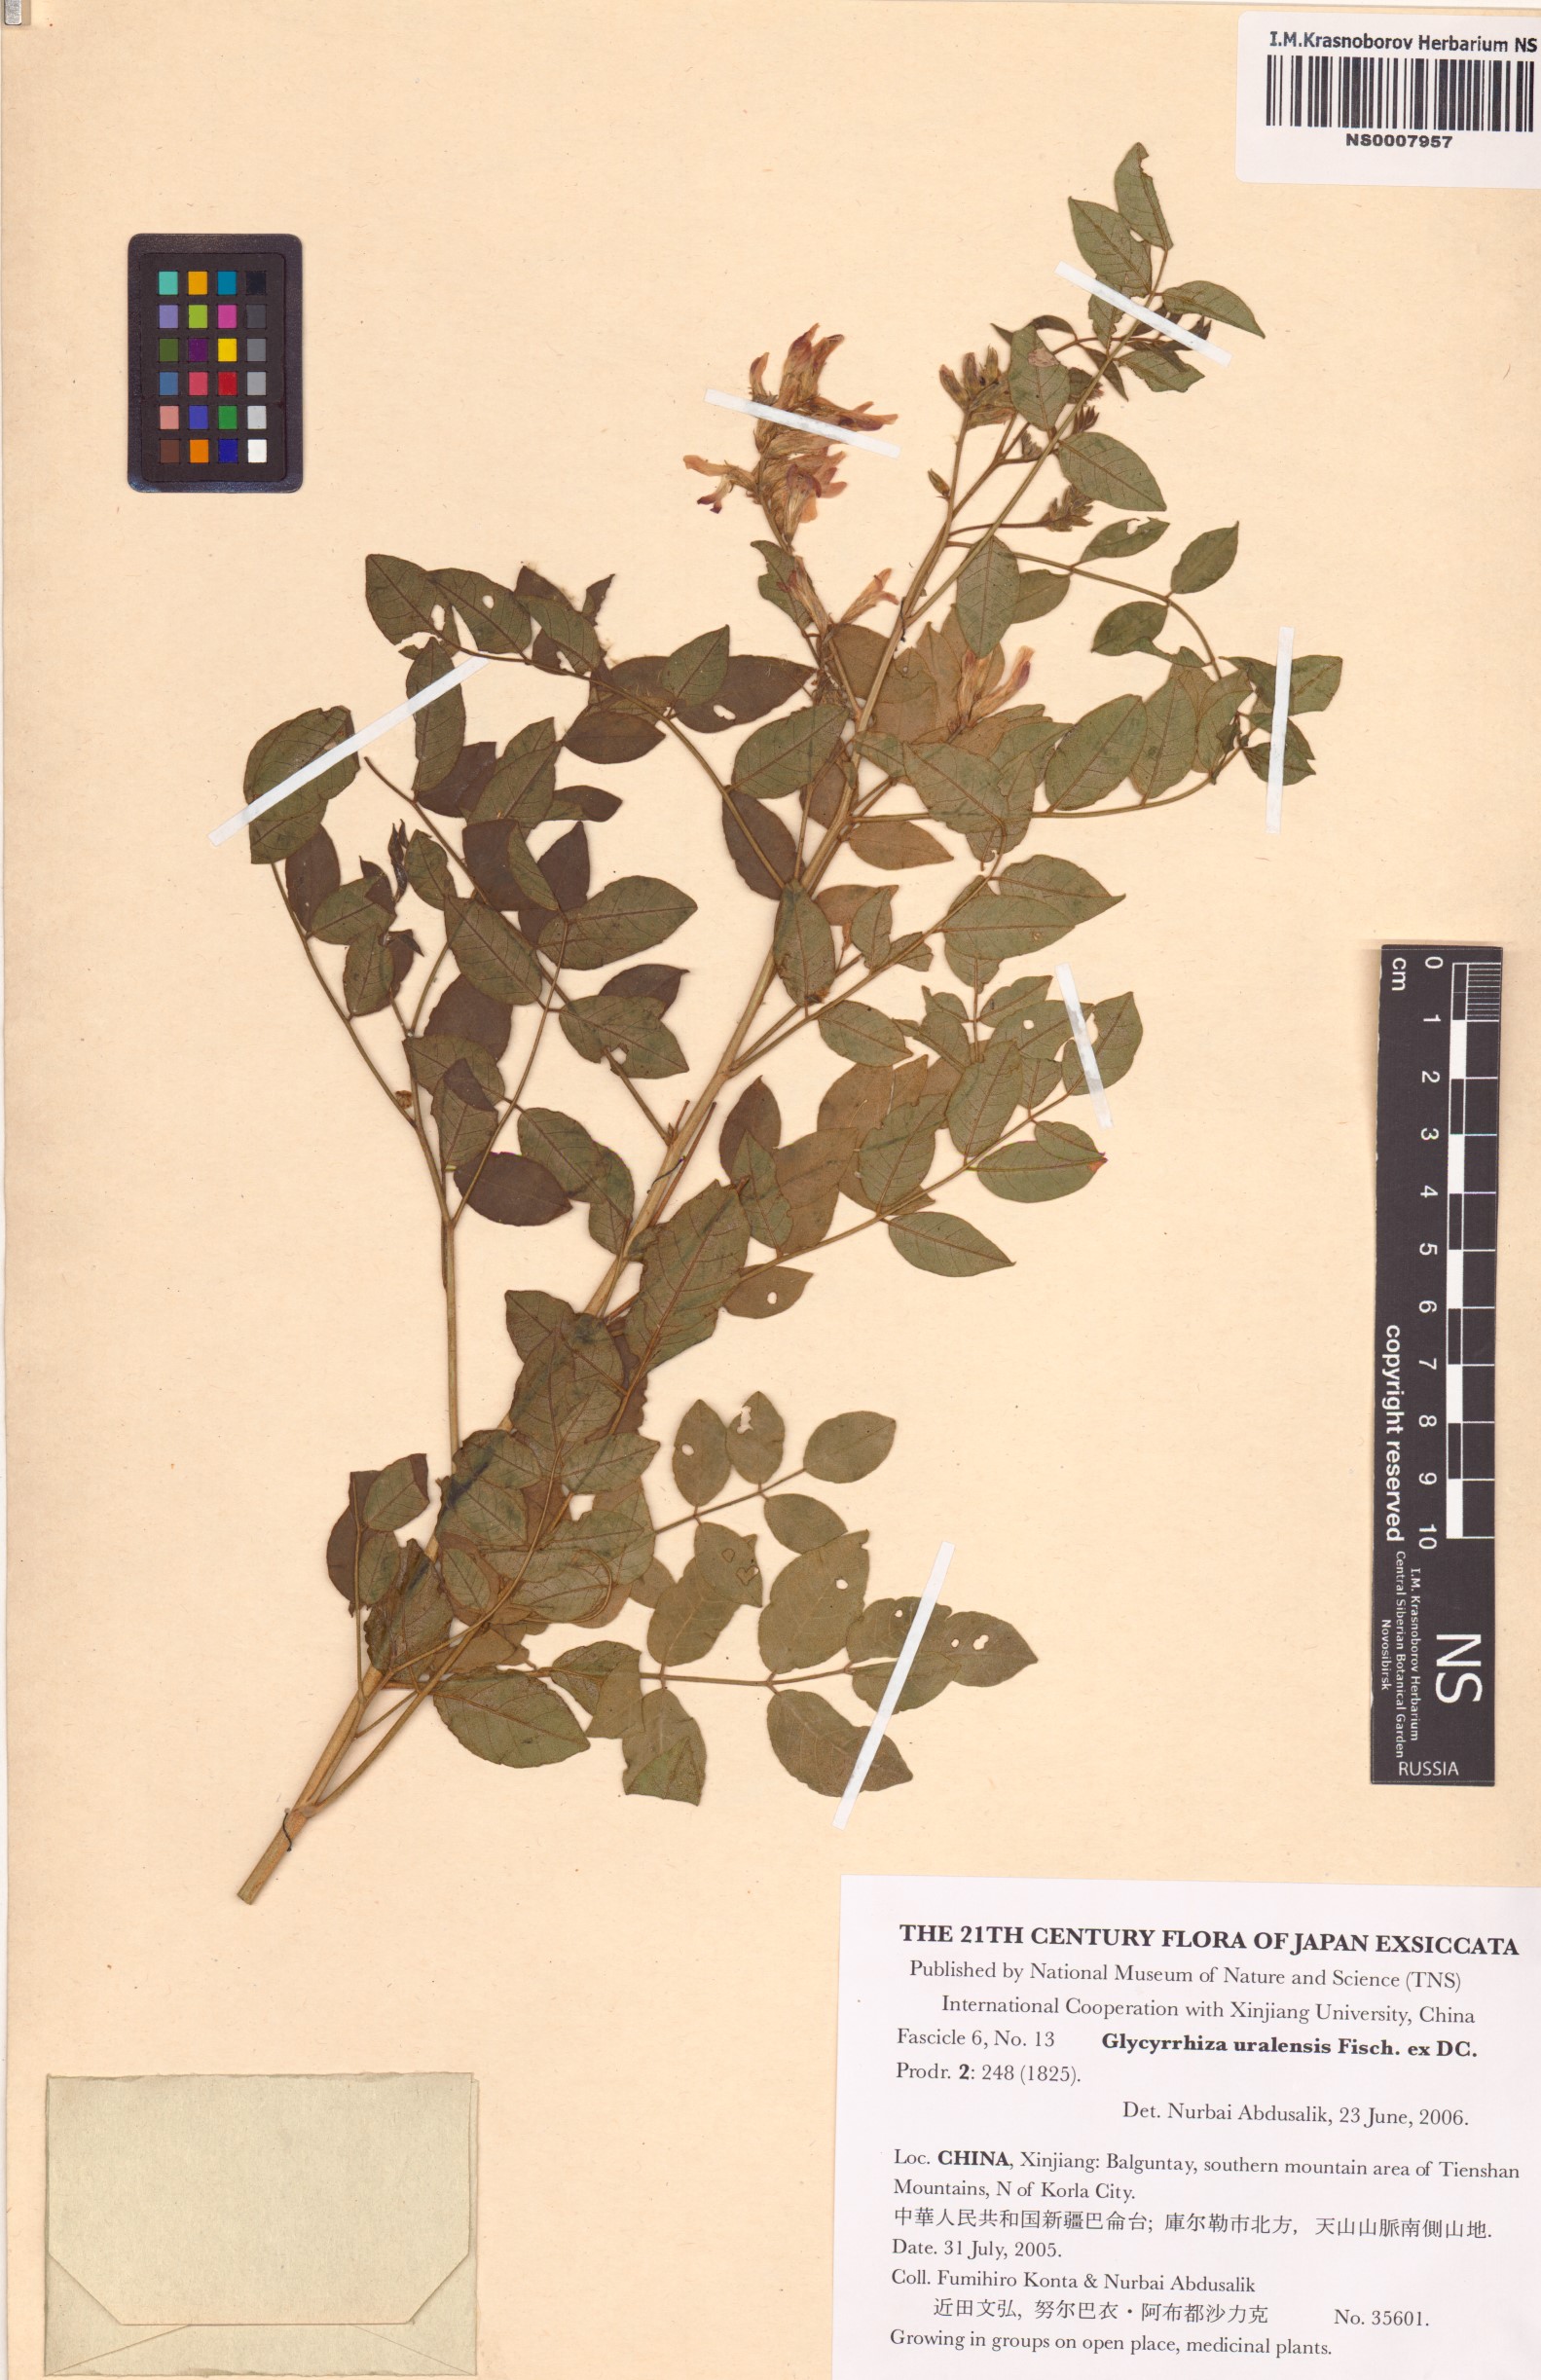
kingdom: Plantae
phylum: Tracheophyta
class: Magnoliopsida
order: Fabales
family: Fabaceae
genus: Glycyrrhiza
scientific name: Glycyrrhiza uralensis
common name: Chinese licorice
